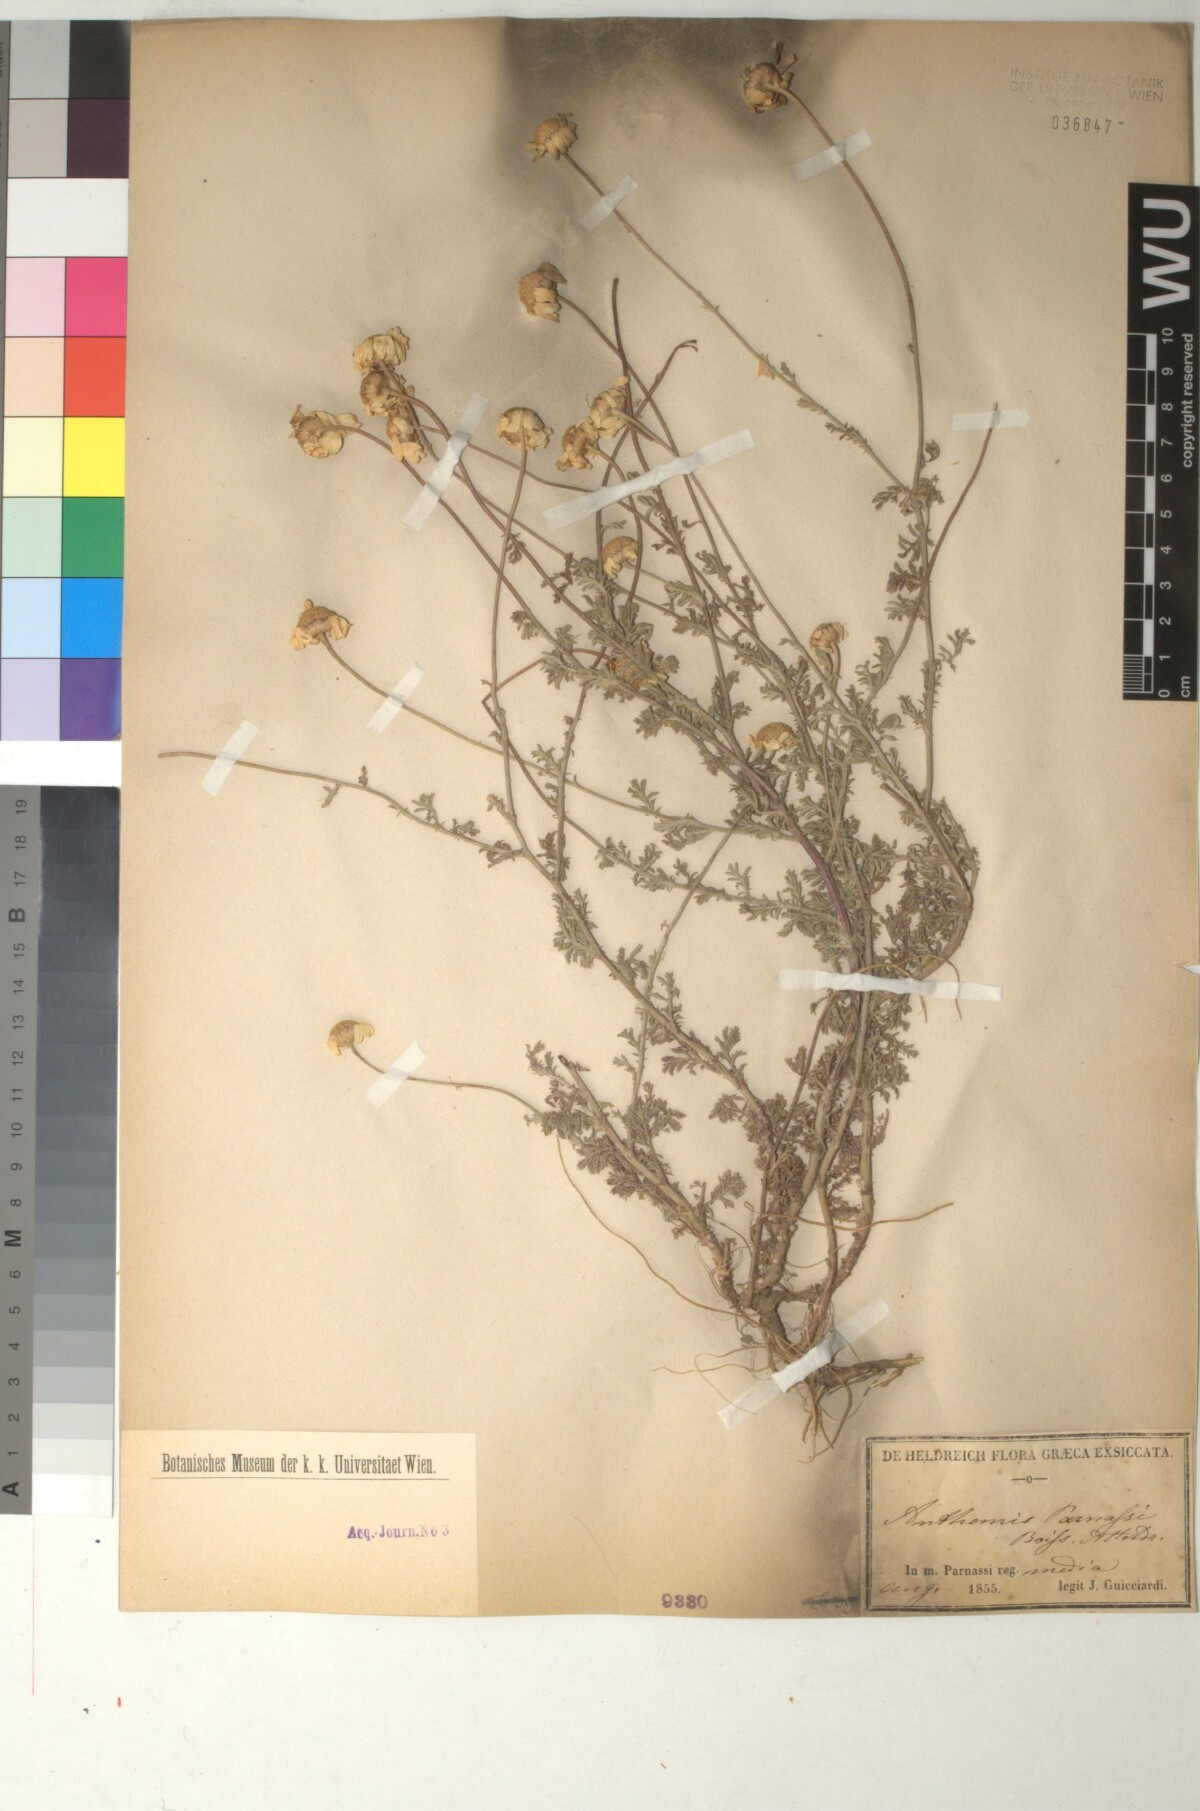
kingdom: Plantae
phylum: Tracheophyta
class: Magnoliopsida
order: Asterales
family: Asteraceae
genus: Cota
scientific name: Cota tinctoria
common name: Golden chamomile
